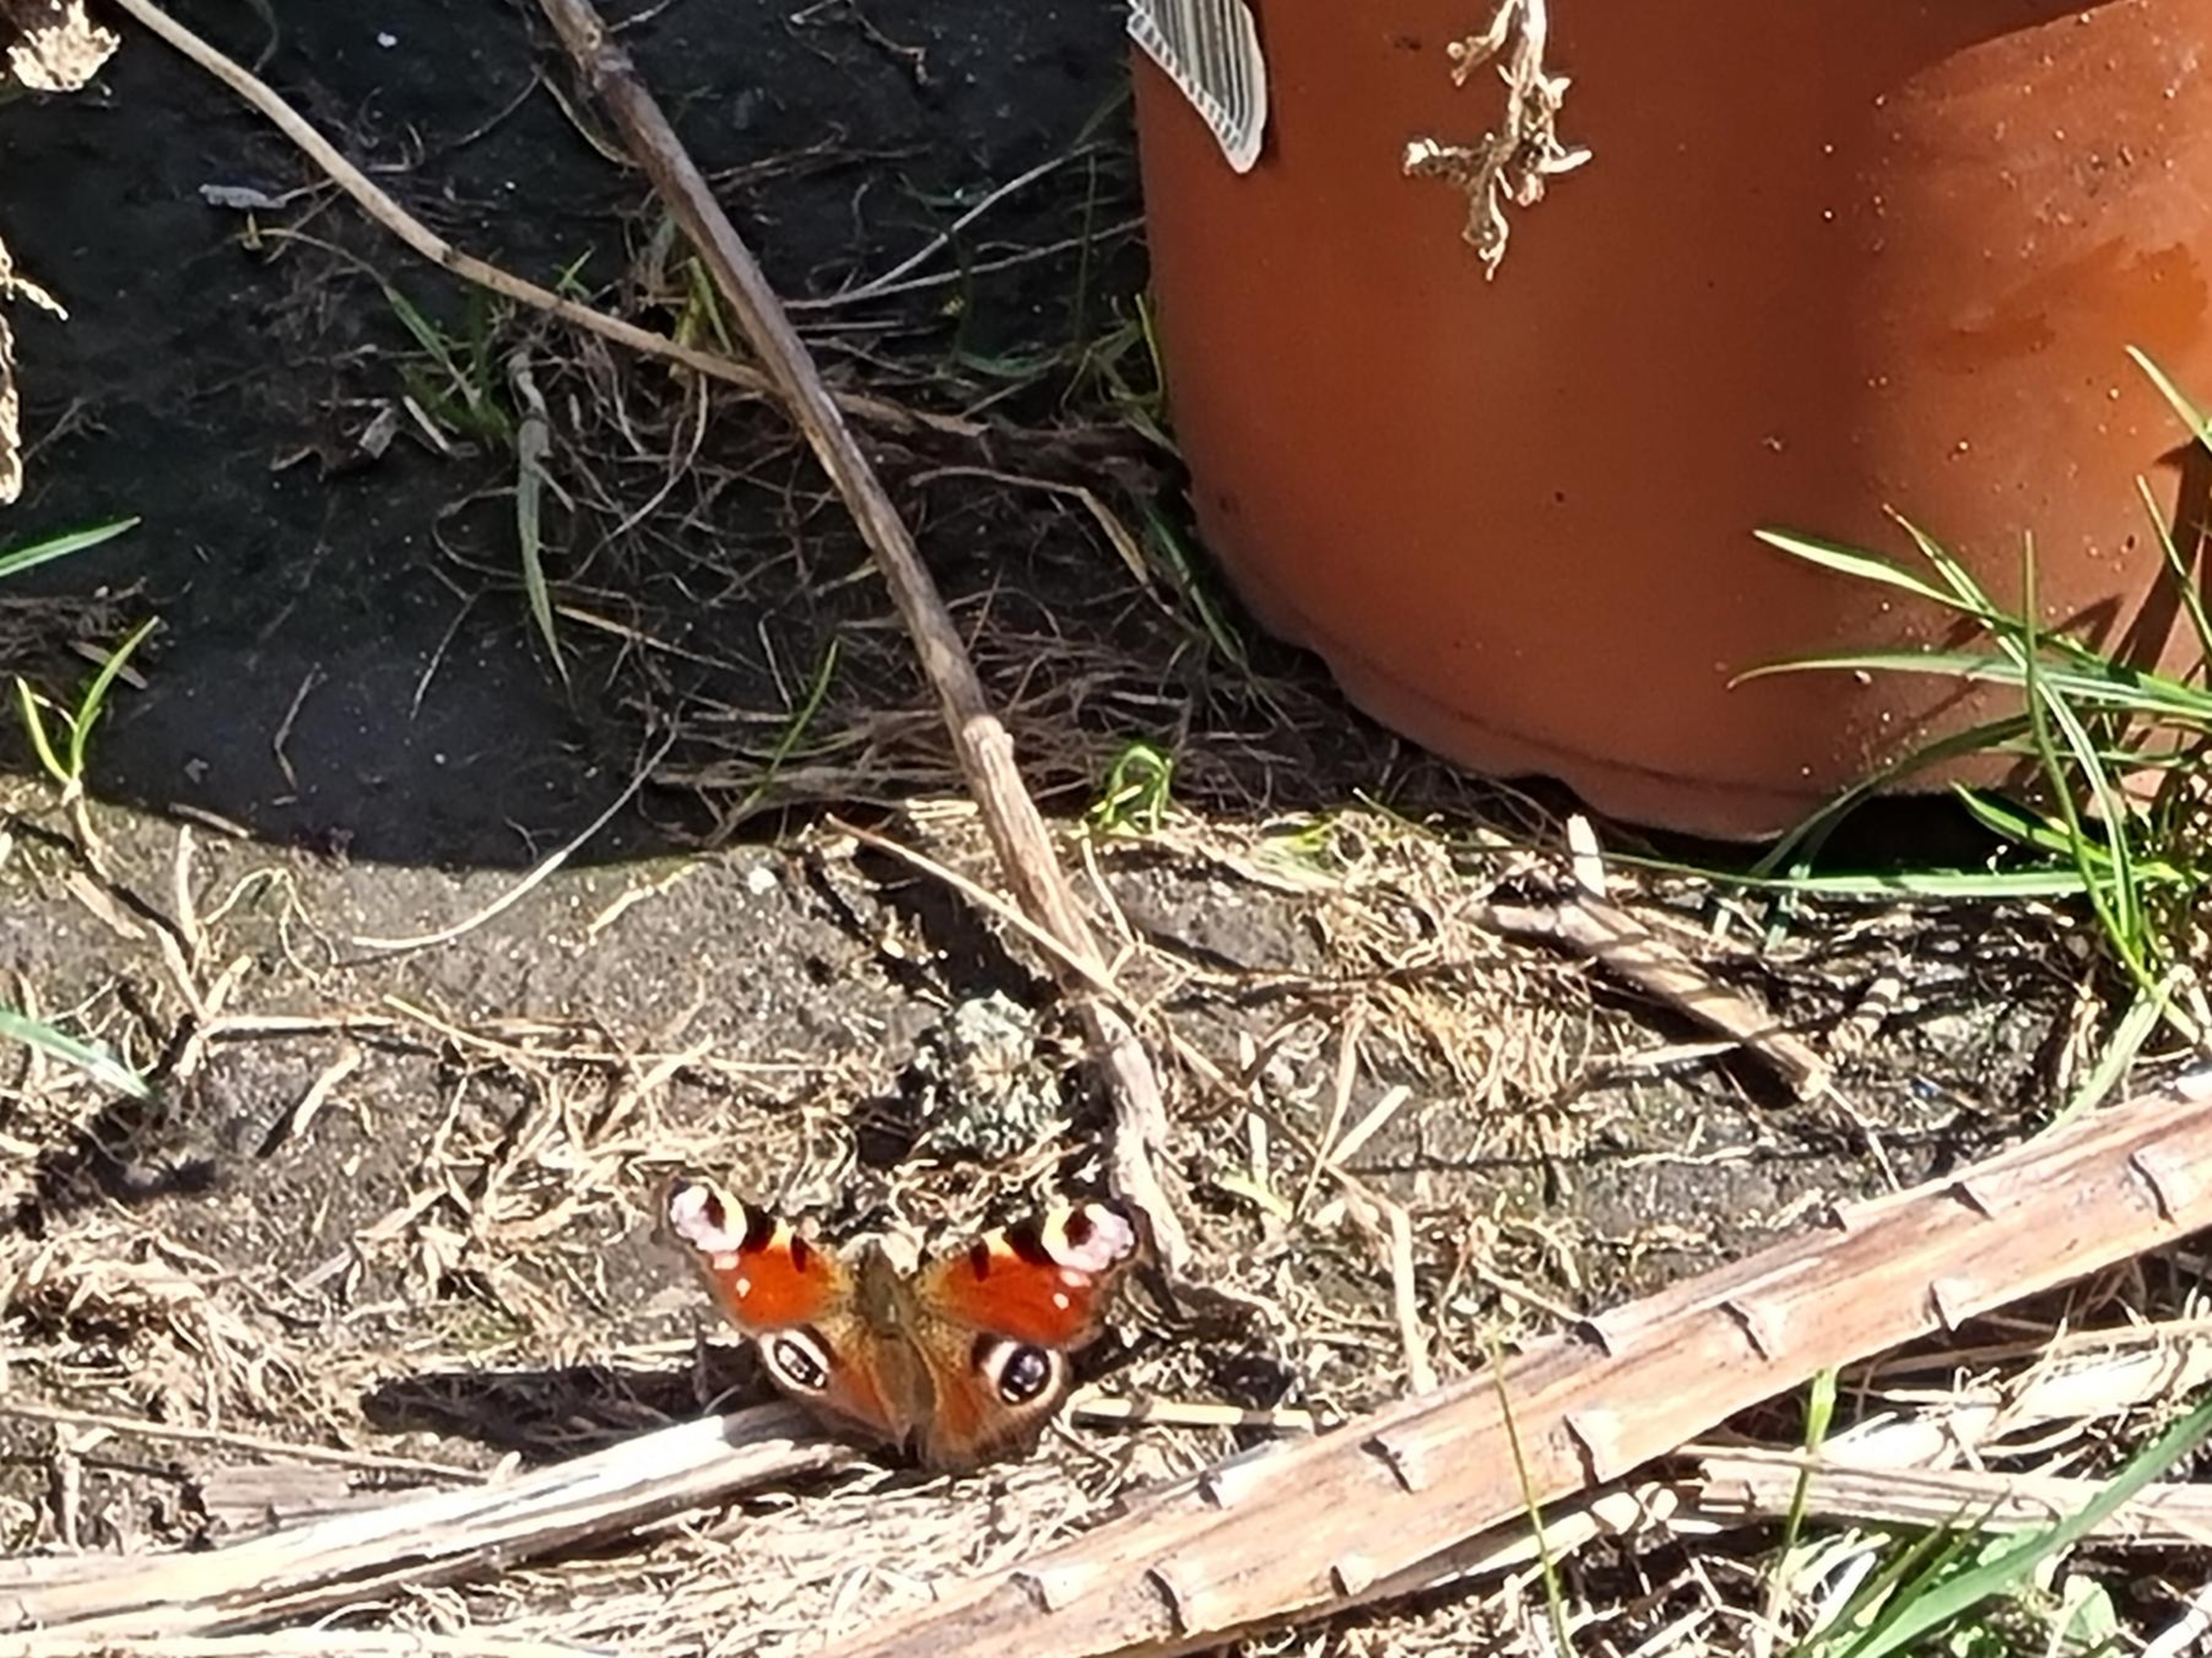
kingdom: Animalia
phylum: Arthropoda
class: Insecta
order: Lepidoptera
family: Nymphalidae
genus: Aglais
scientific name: Aglais io
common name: Dagpåfugleøje
